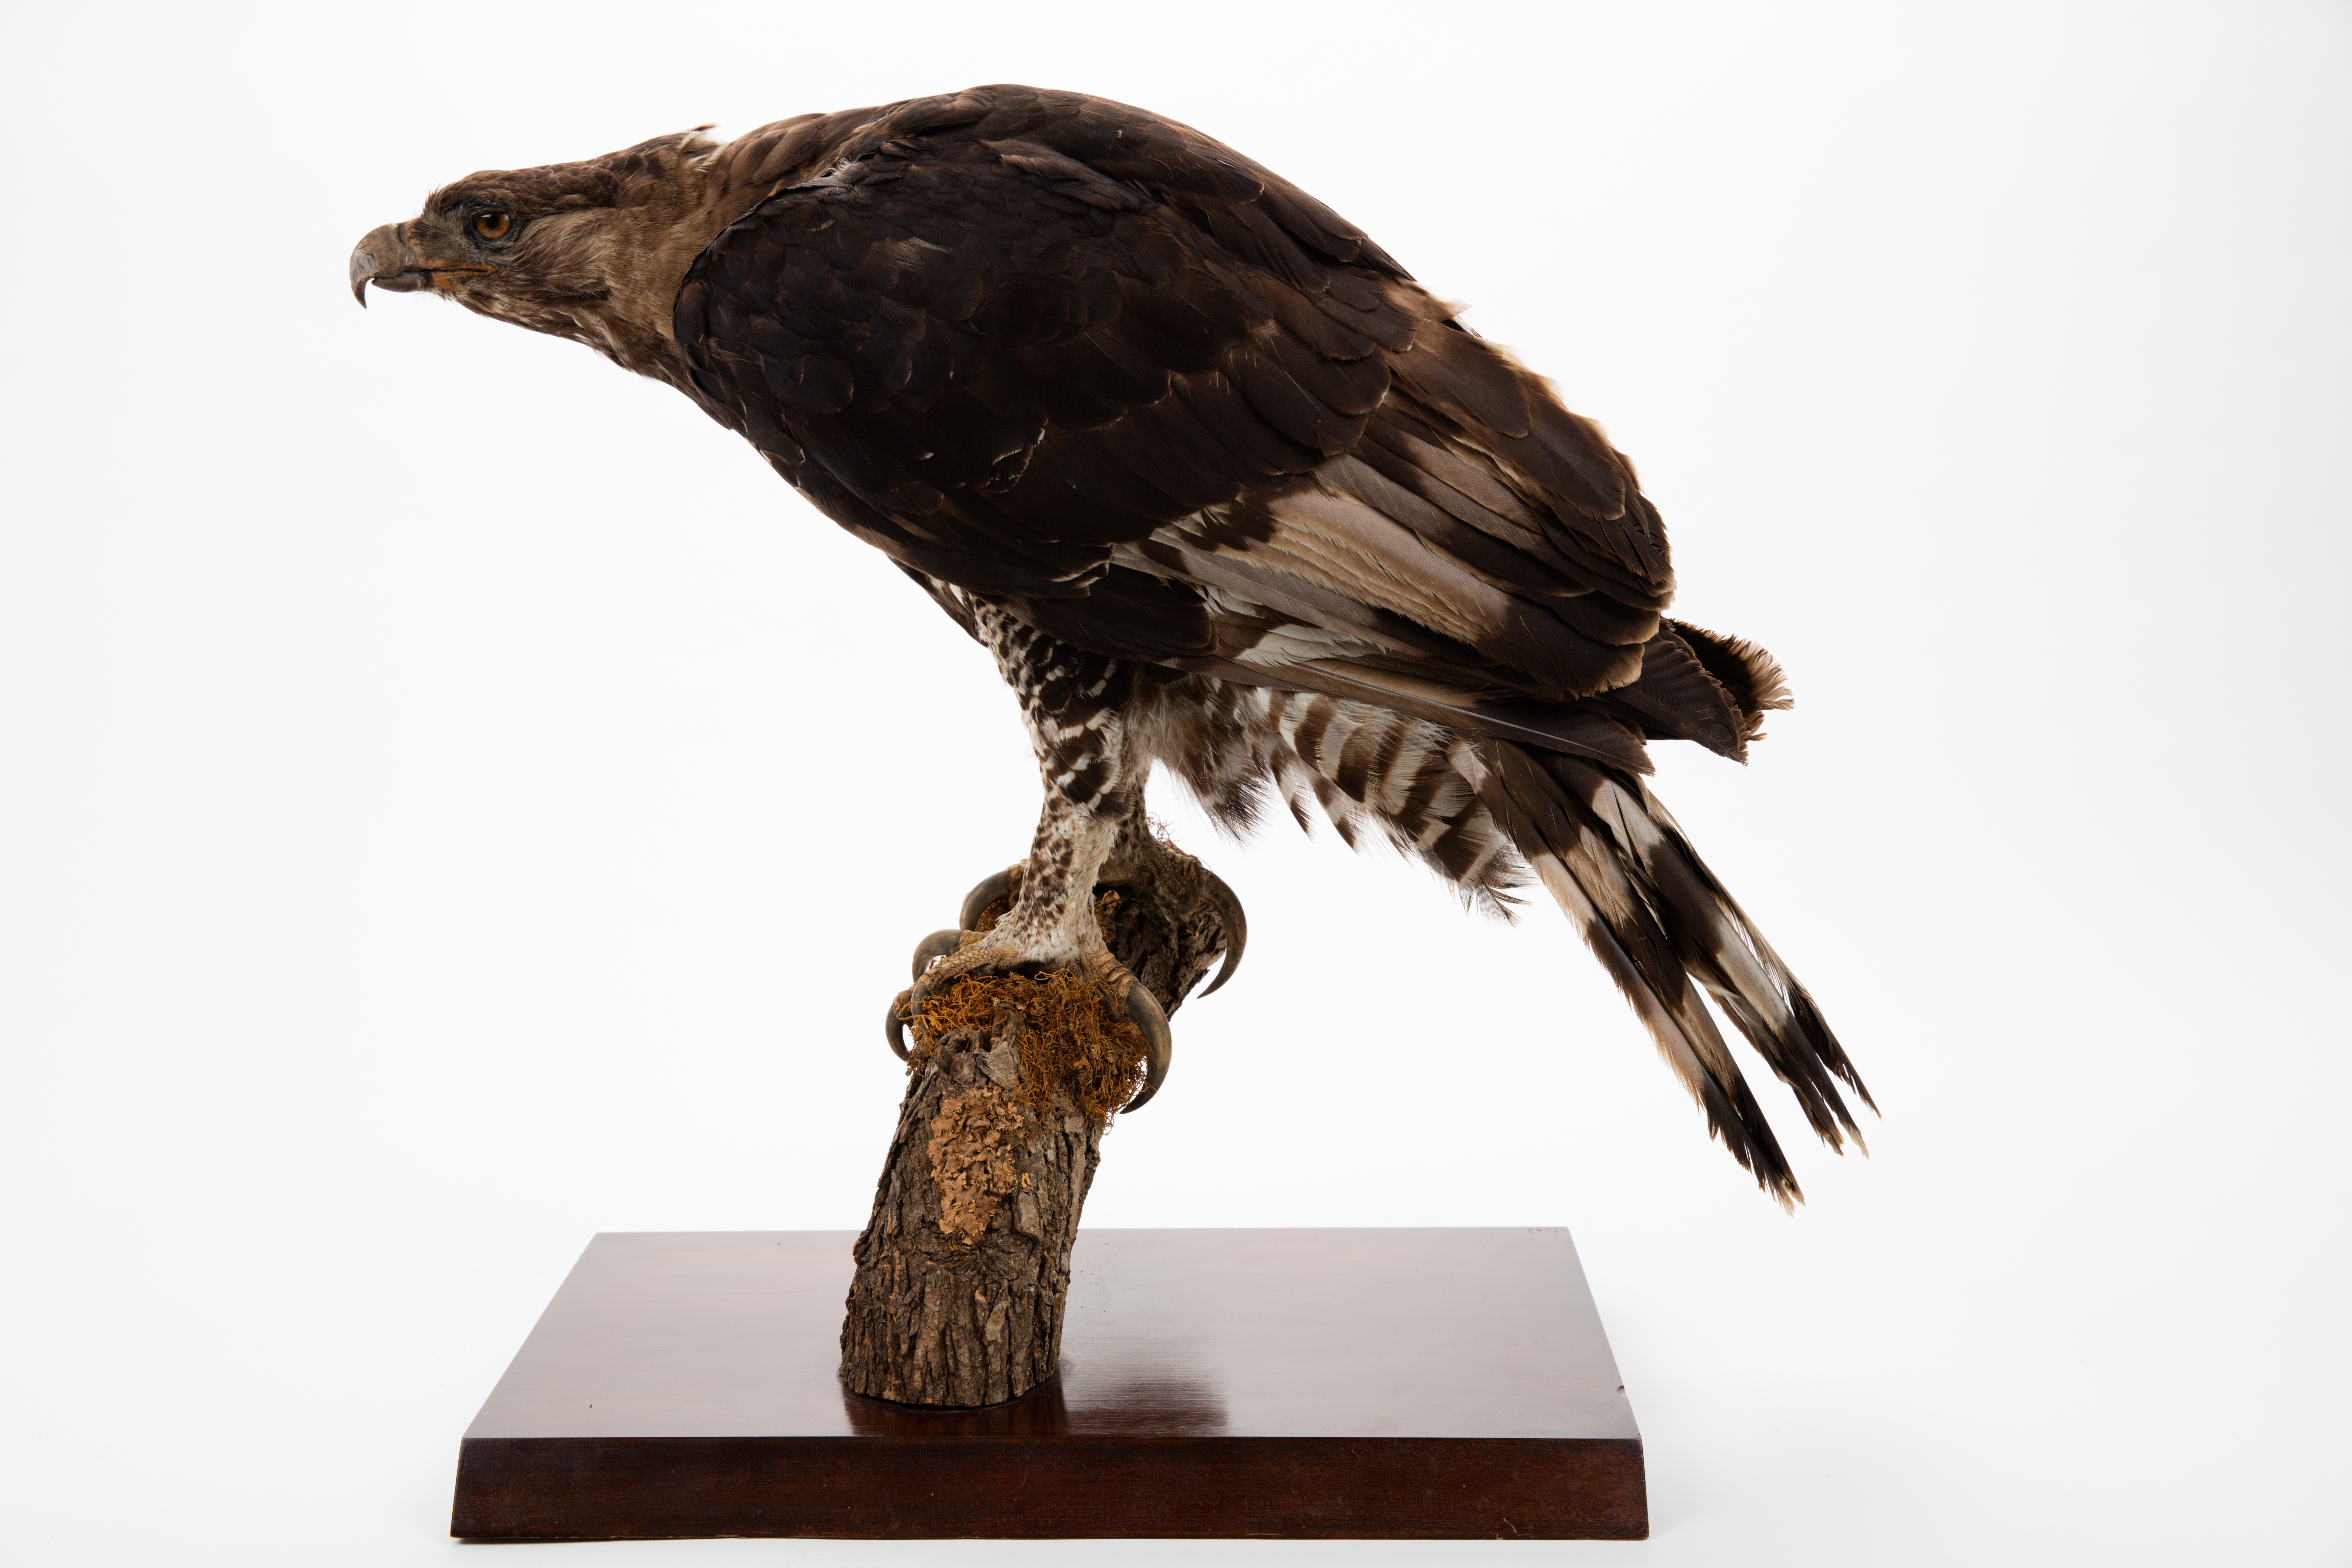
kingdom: Animalia
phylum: Chordata
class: Aves
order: Accipitriformes
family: Accipitridae
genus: Spizaetus
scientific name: Spizaetus
